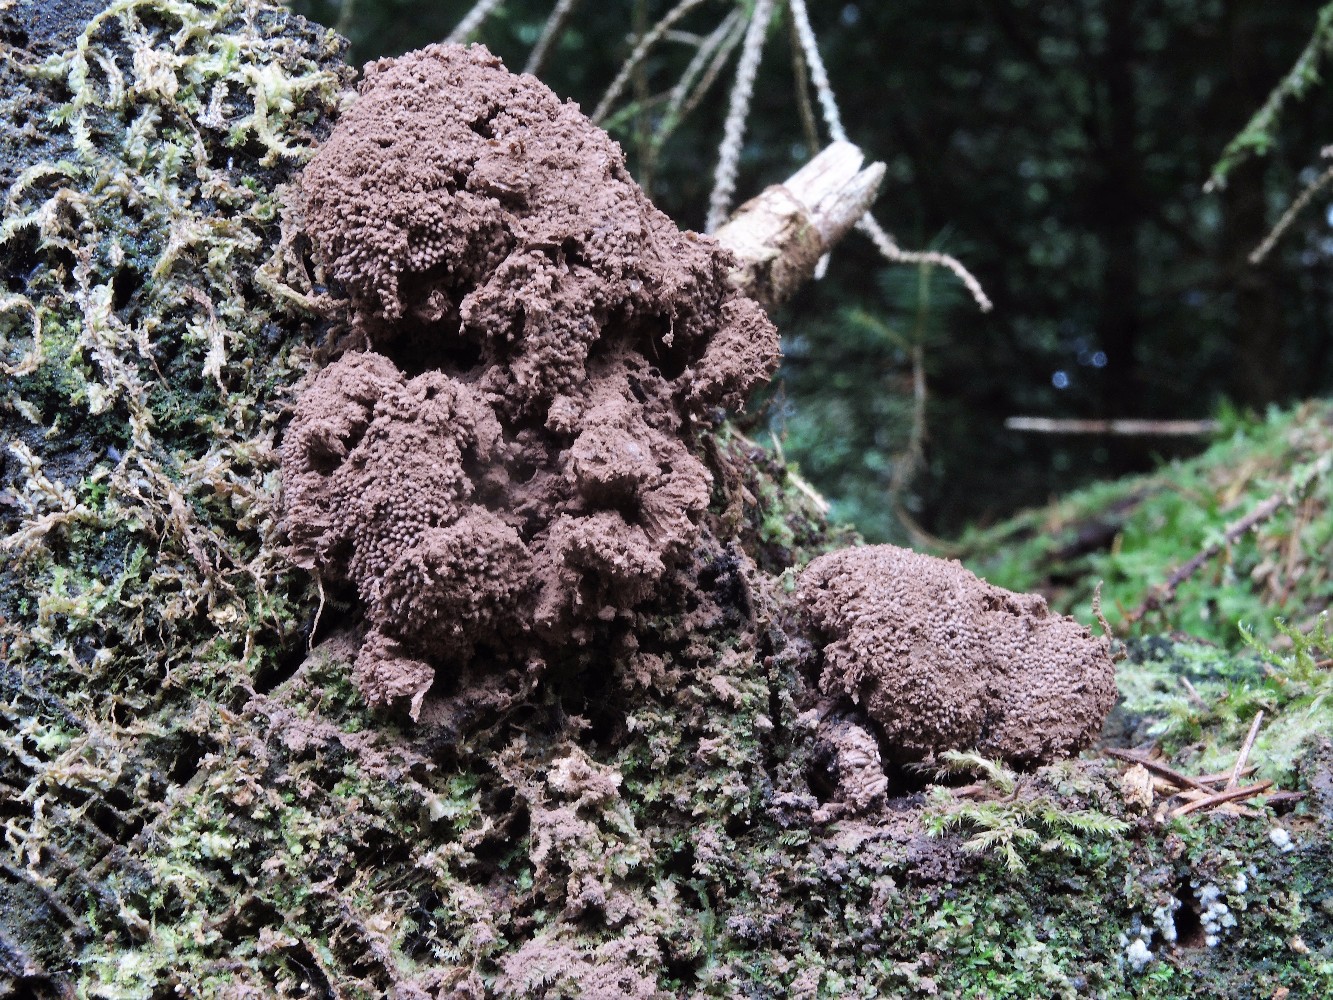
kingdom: Protozoa
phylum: Mycetozoa
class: Myxomycetes
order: Cribrariales
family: Tubiferaceae
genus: Tubifera
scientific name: Tubifera ferruginosa
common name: kanel-støvrør
